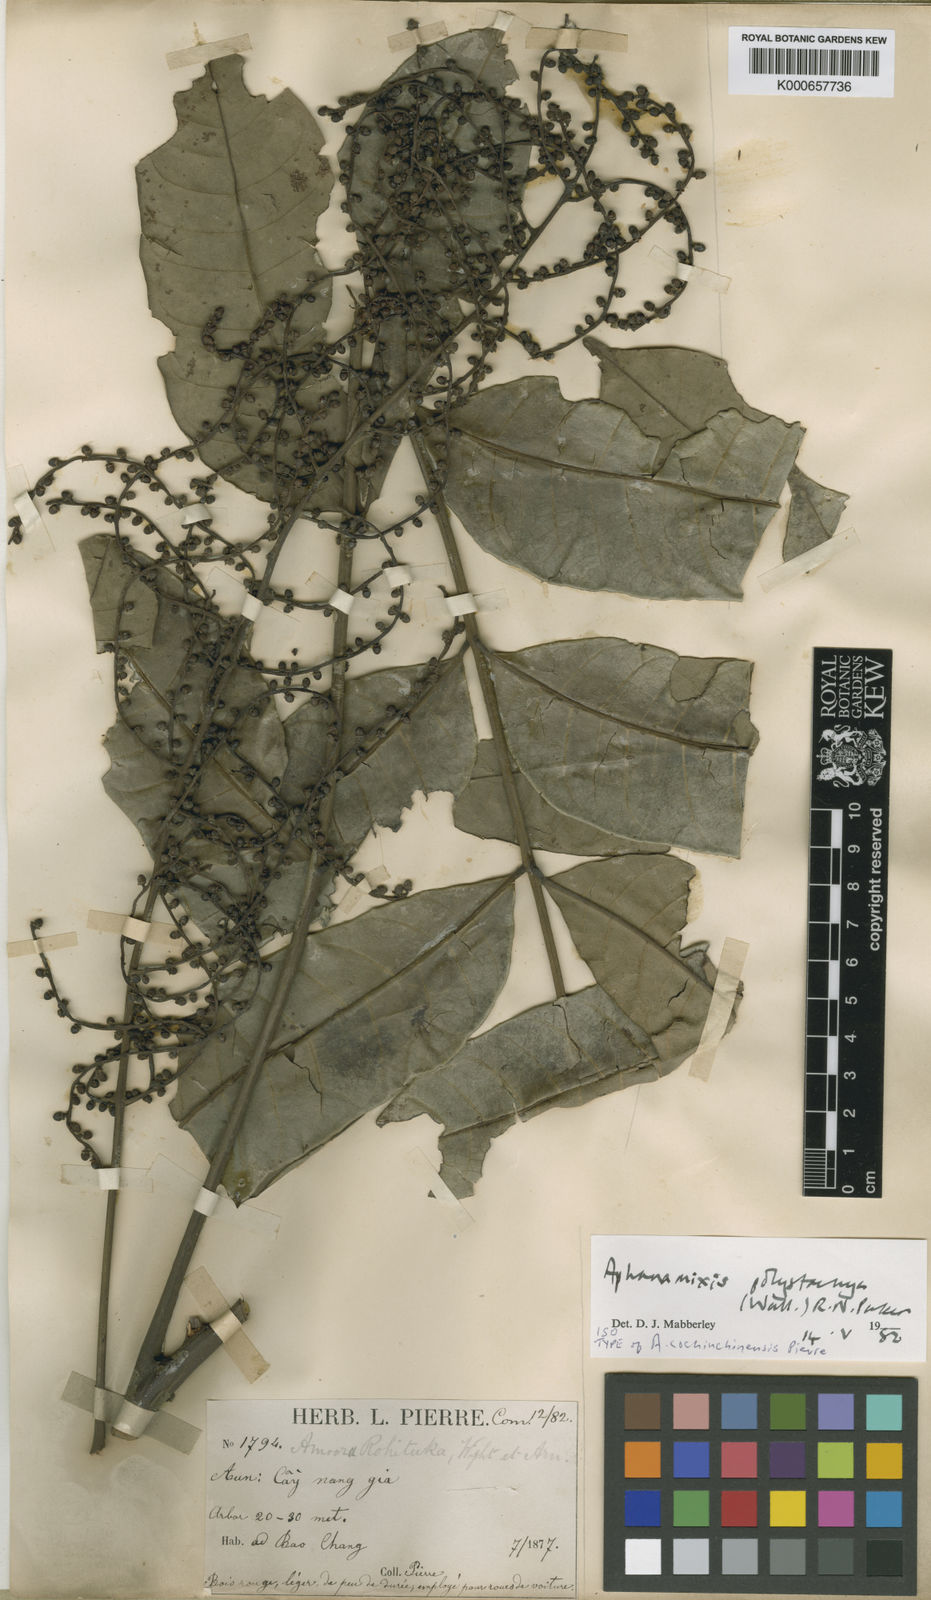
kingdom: Plantae
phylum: Tracheophyta
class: Magnoliopsida
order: Sapindales
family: Meliaceae
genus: Aphanamixis
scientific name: Aphanamixis polystachya
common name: Pithraj tree
